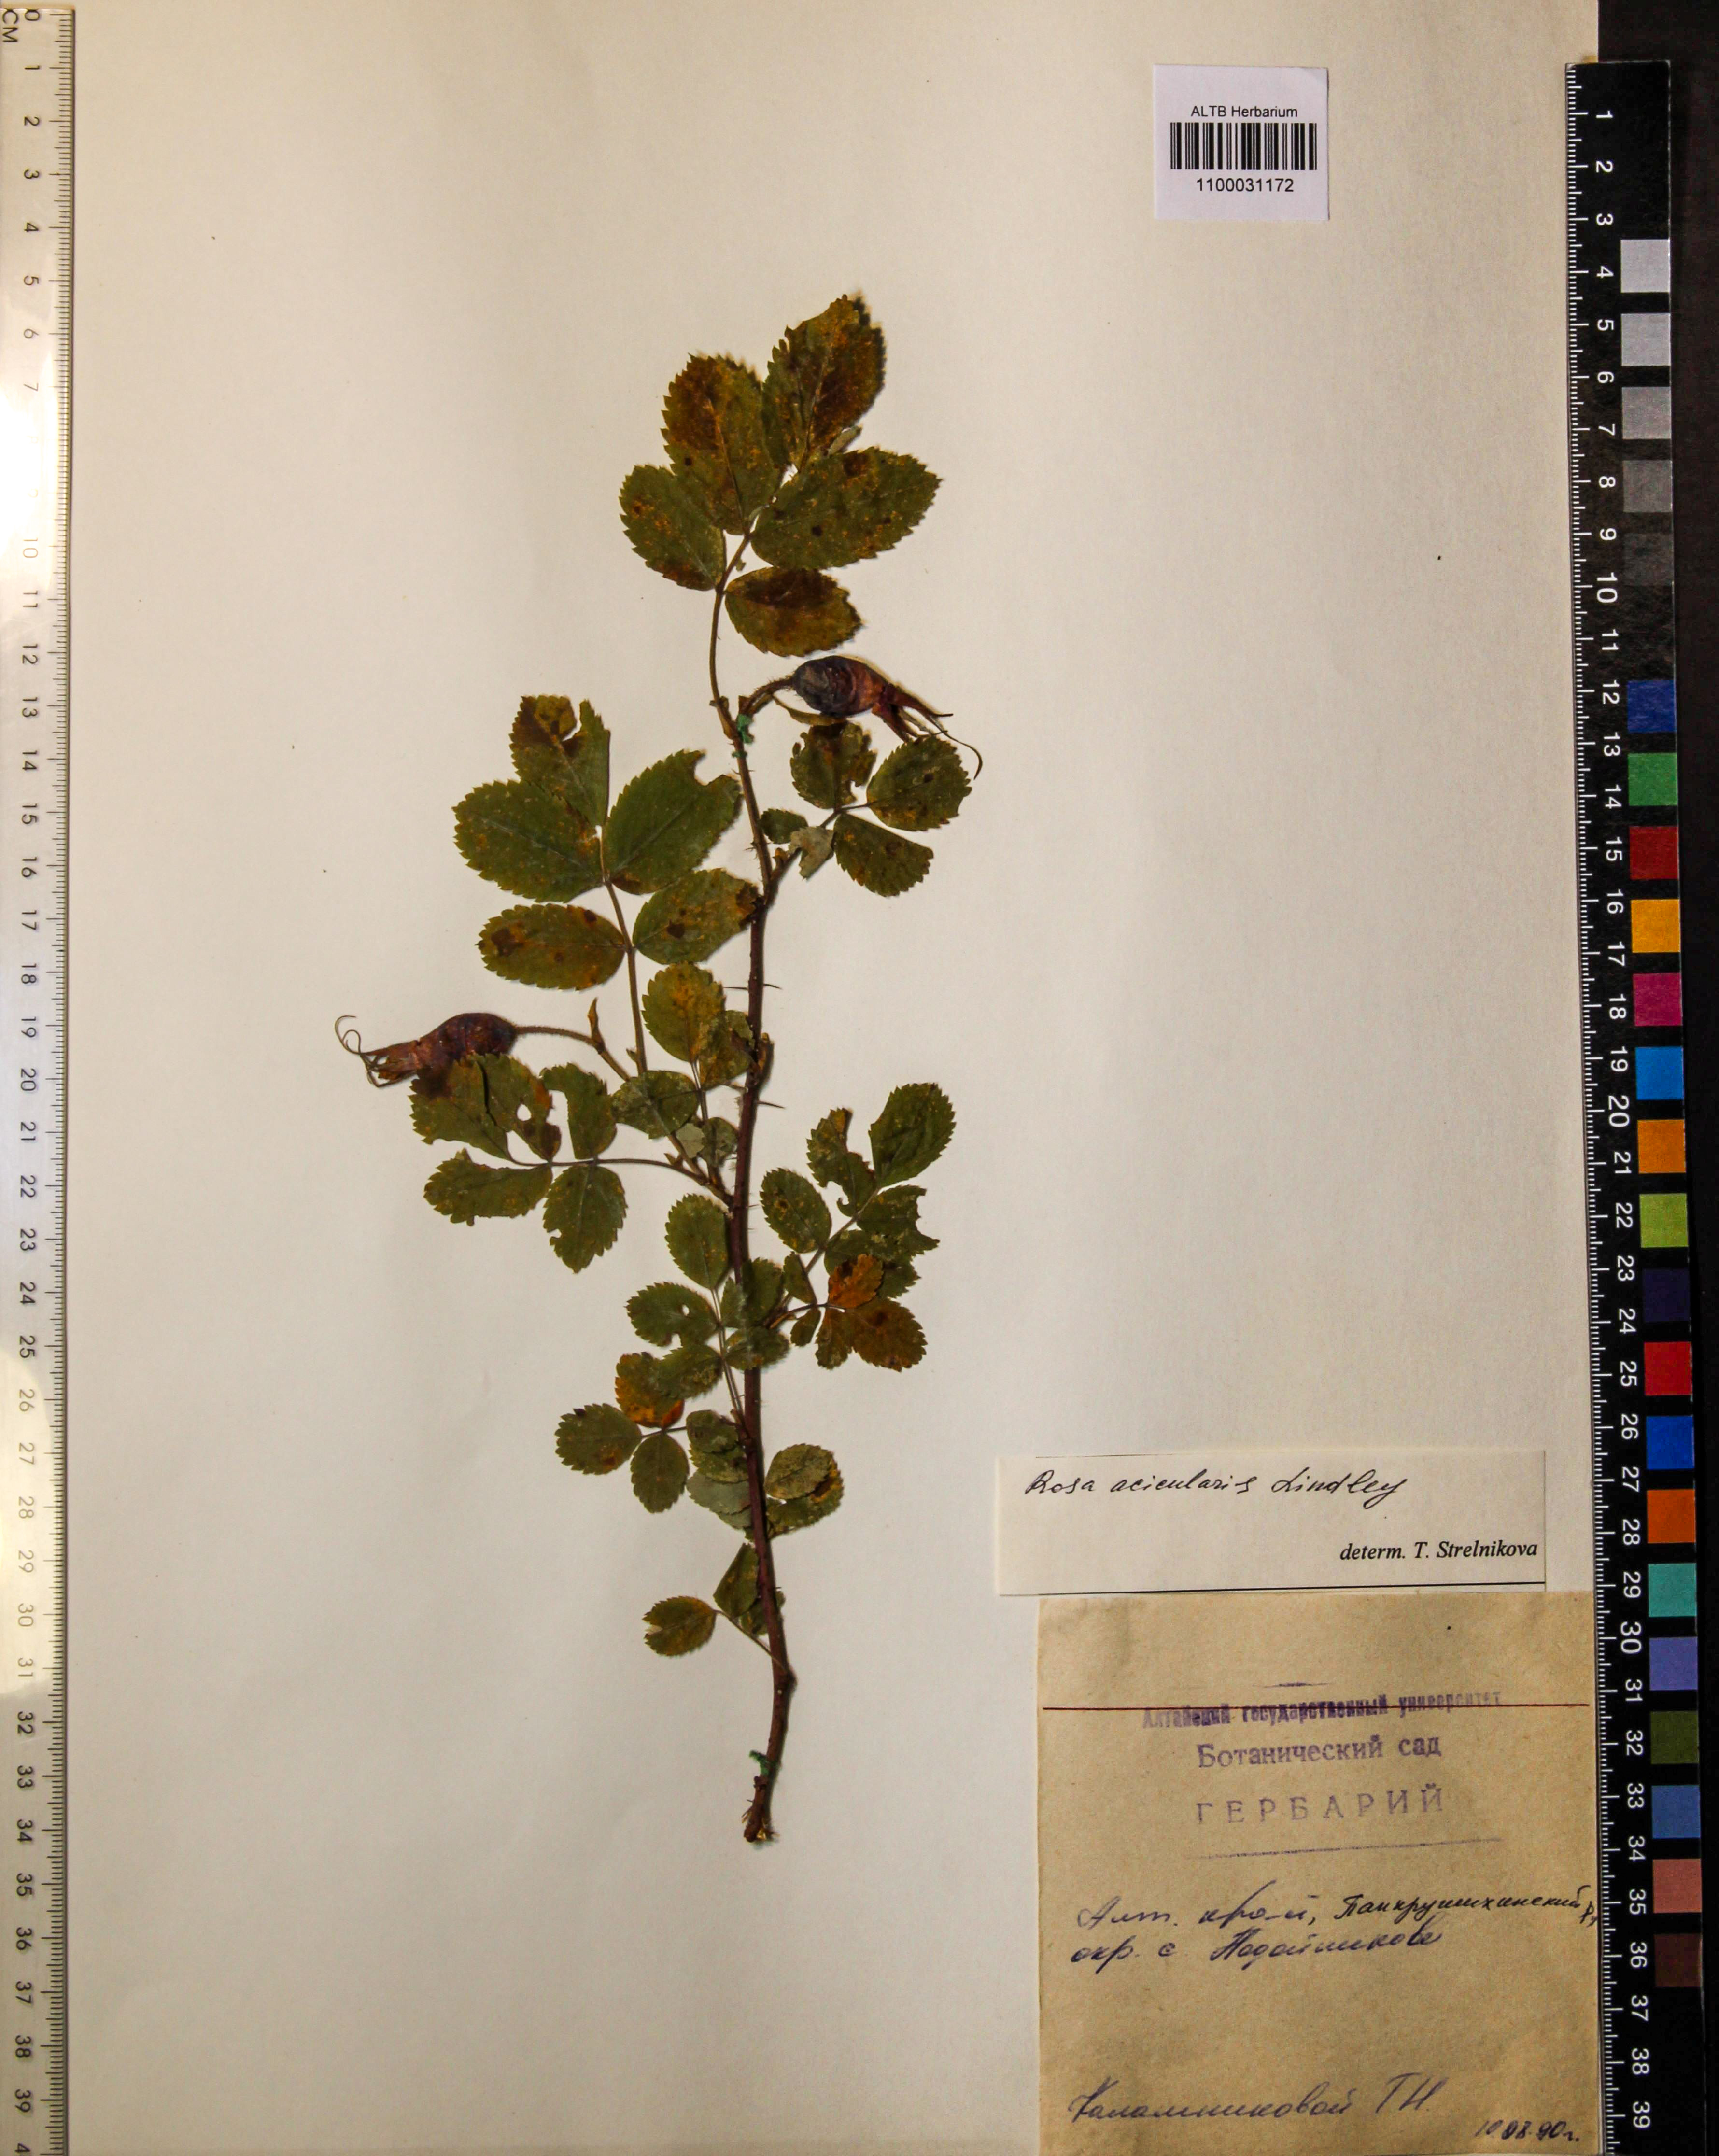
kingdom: Plantae
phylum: Tracheophyta
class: Magnoliopsida
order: Rosales
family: Rosaceae
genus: Rosa
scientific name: Rosa acicularis
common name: Prickly rose
